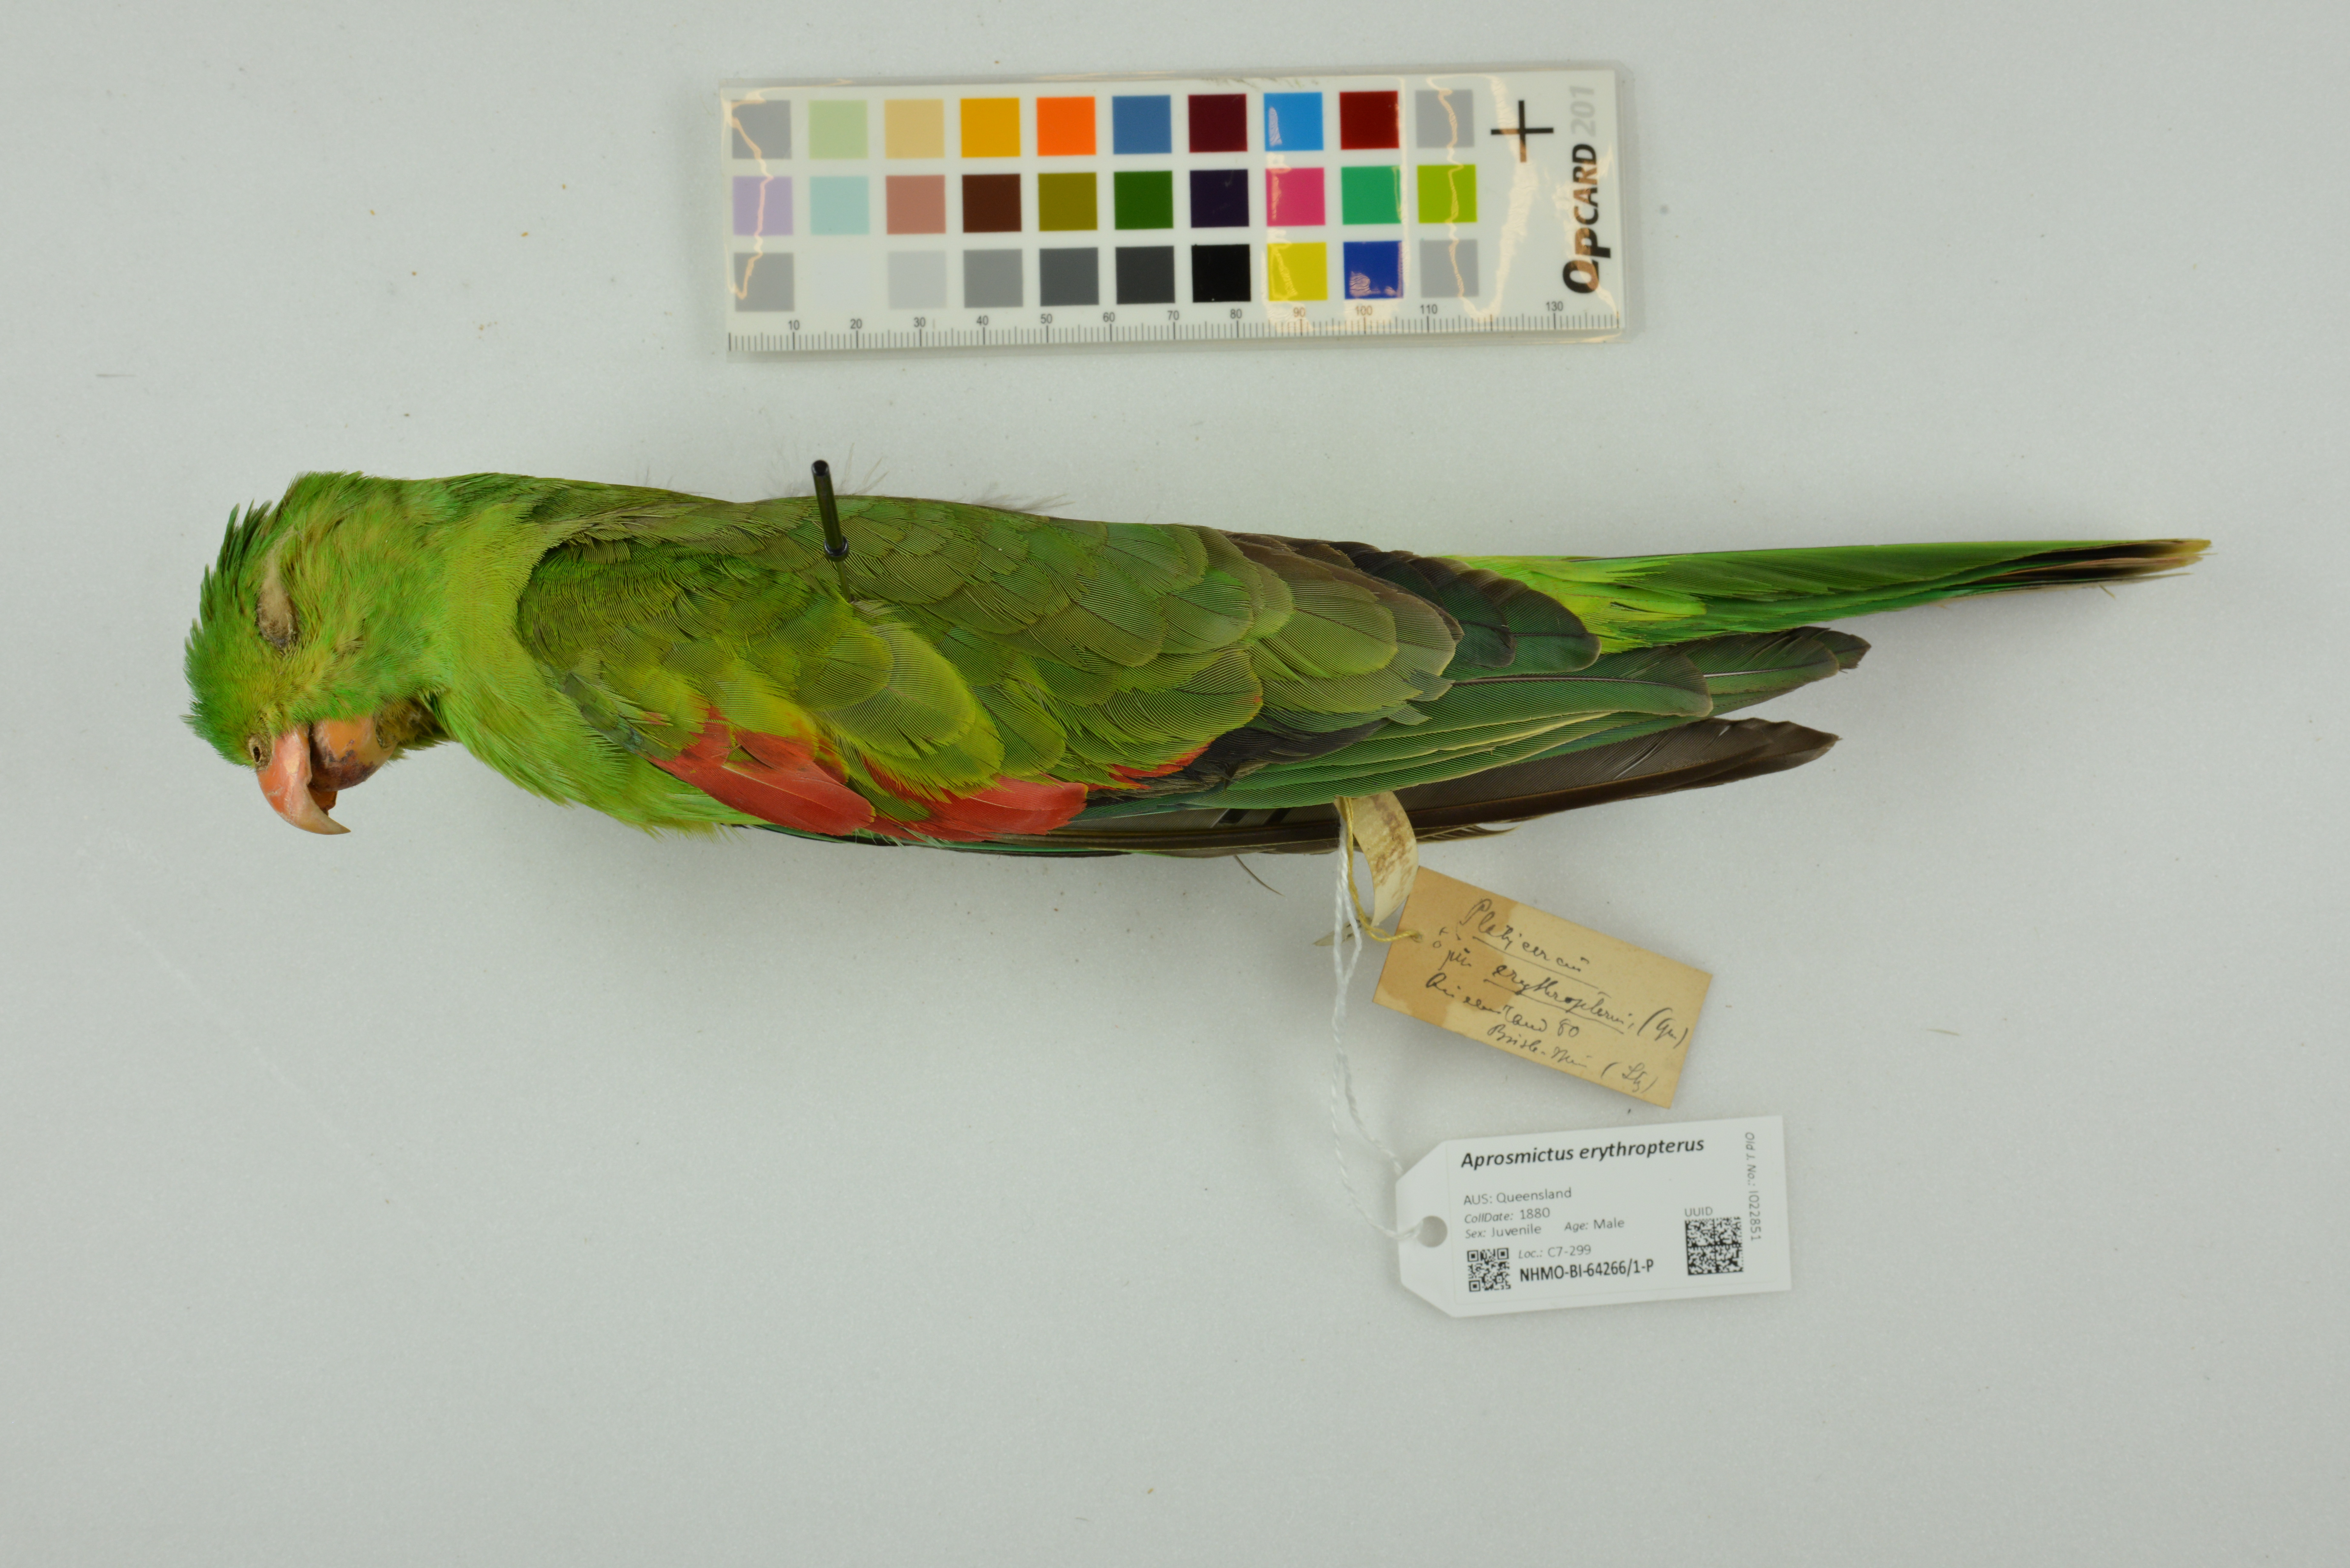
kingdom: Animalia
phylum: Chordata
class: Aves
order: Psittaciformes
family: Psittacidae
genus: Aprosmictus
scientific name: Aprosmictus erythropterus
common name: Red-winged parrot
